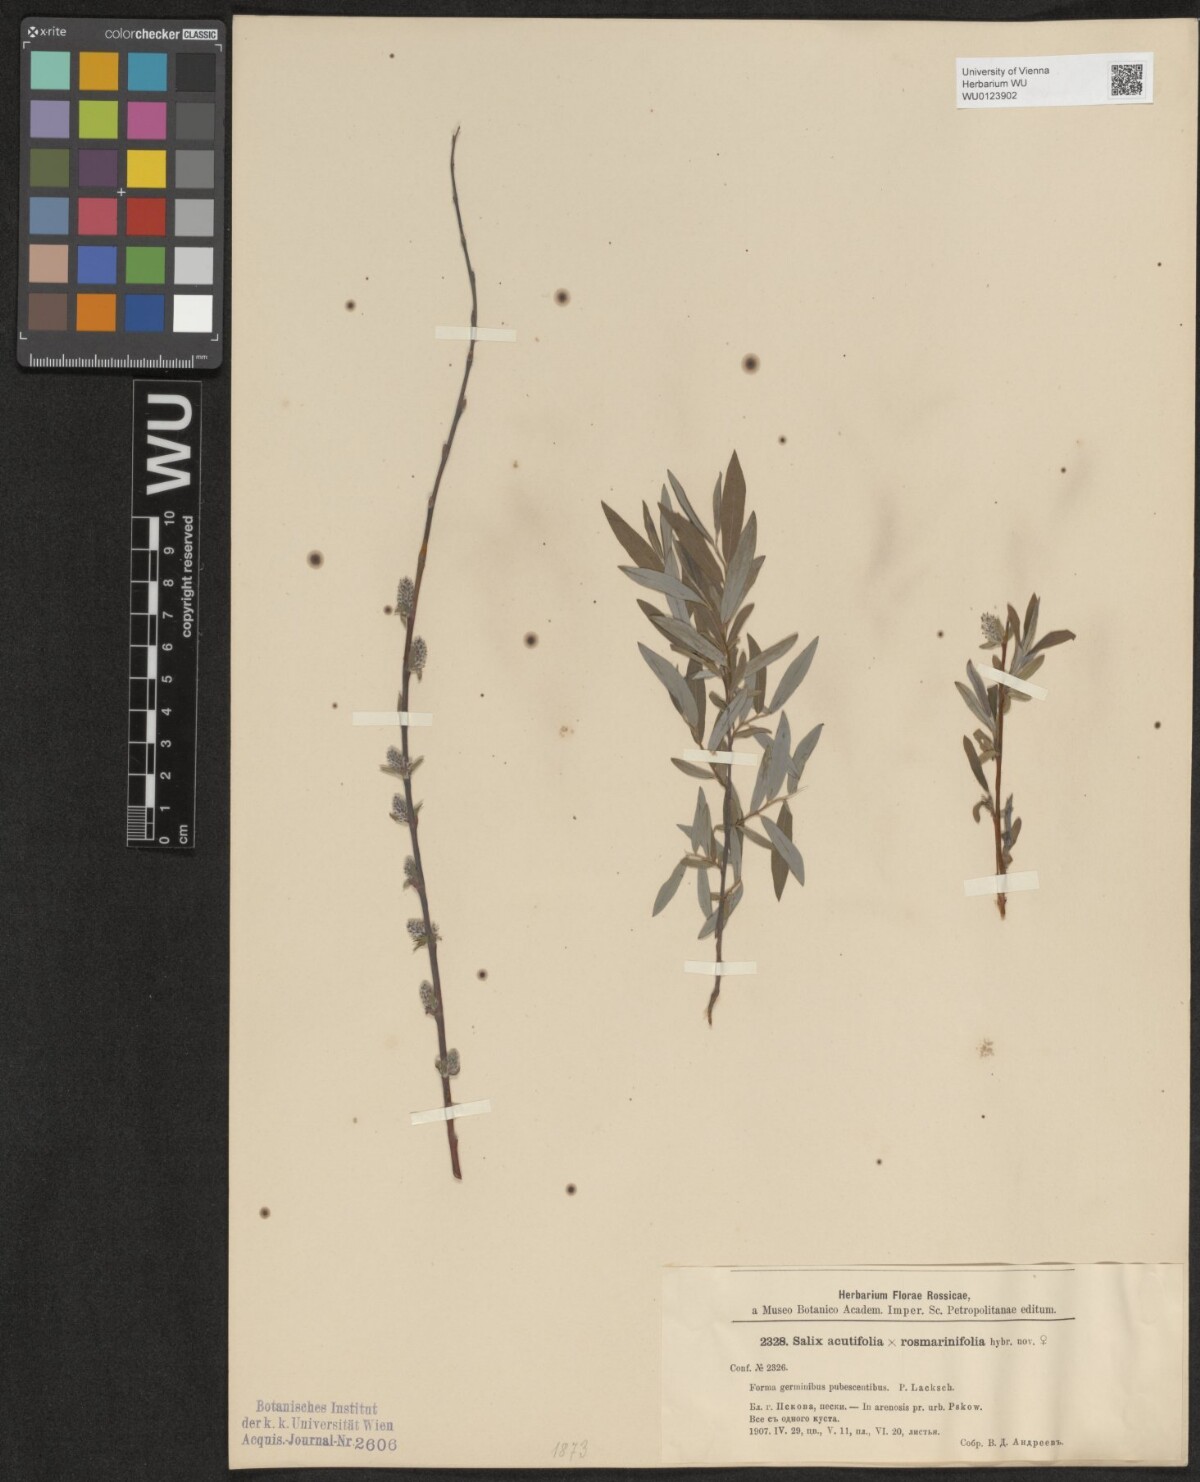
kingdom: Plantae
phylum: Tracheophyta
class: Magnoliopsida
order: Malpighiales
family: Salicaceae
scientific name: Salicaceae
